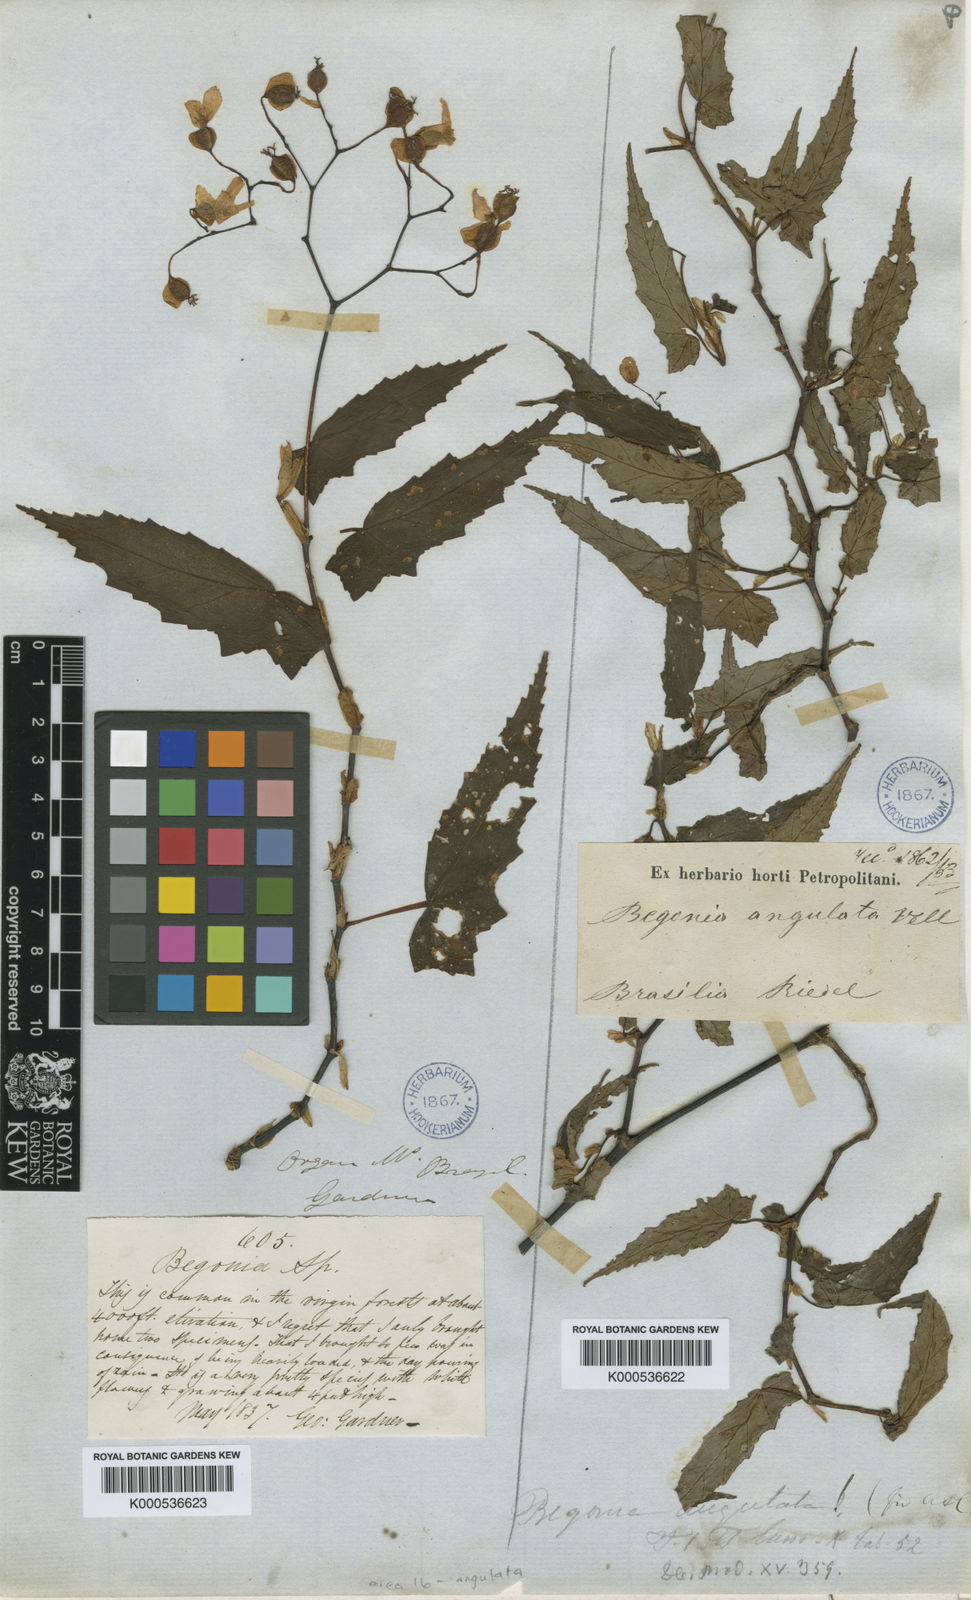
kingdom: Plantae
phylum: Tracheophyta
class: Magnoliopsida
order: Cucurbitales
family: Begoniaceae
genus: Begonia
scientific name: Begonia angulata
